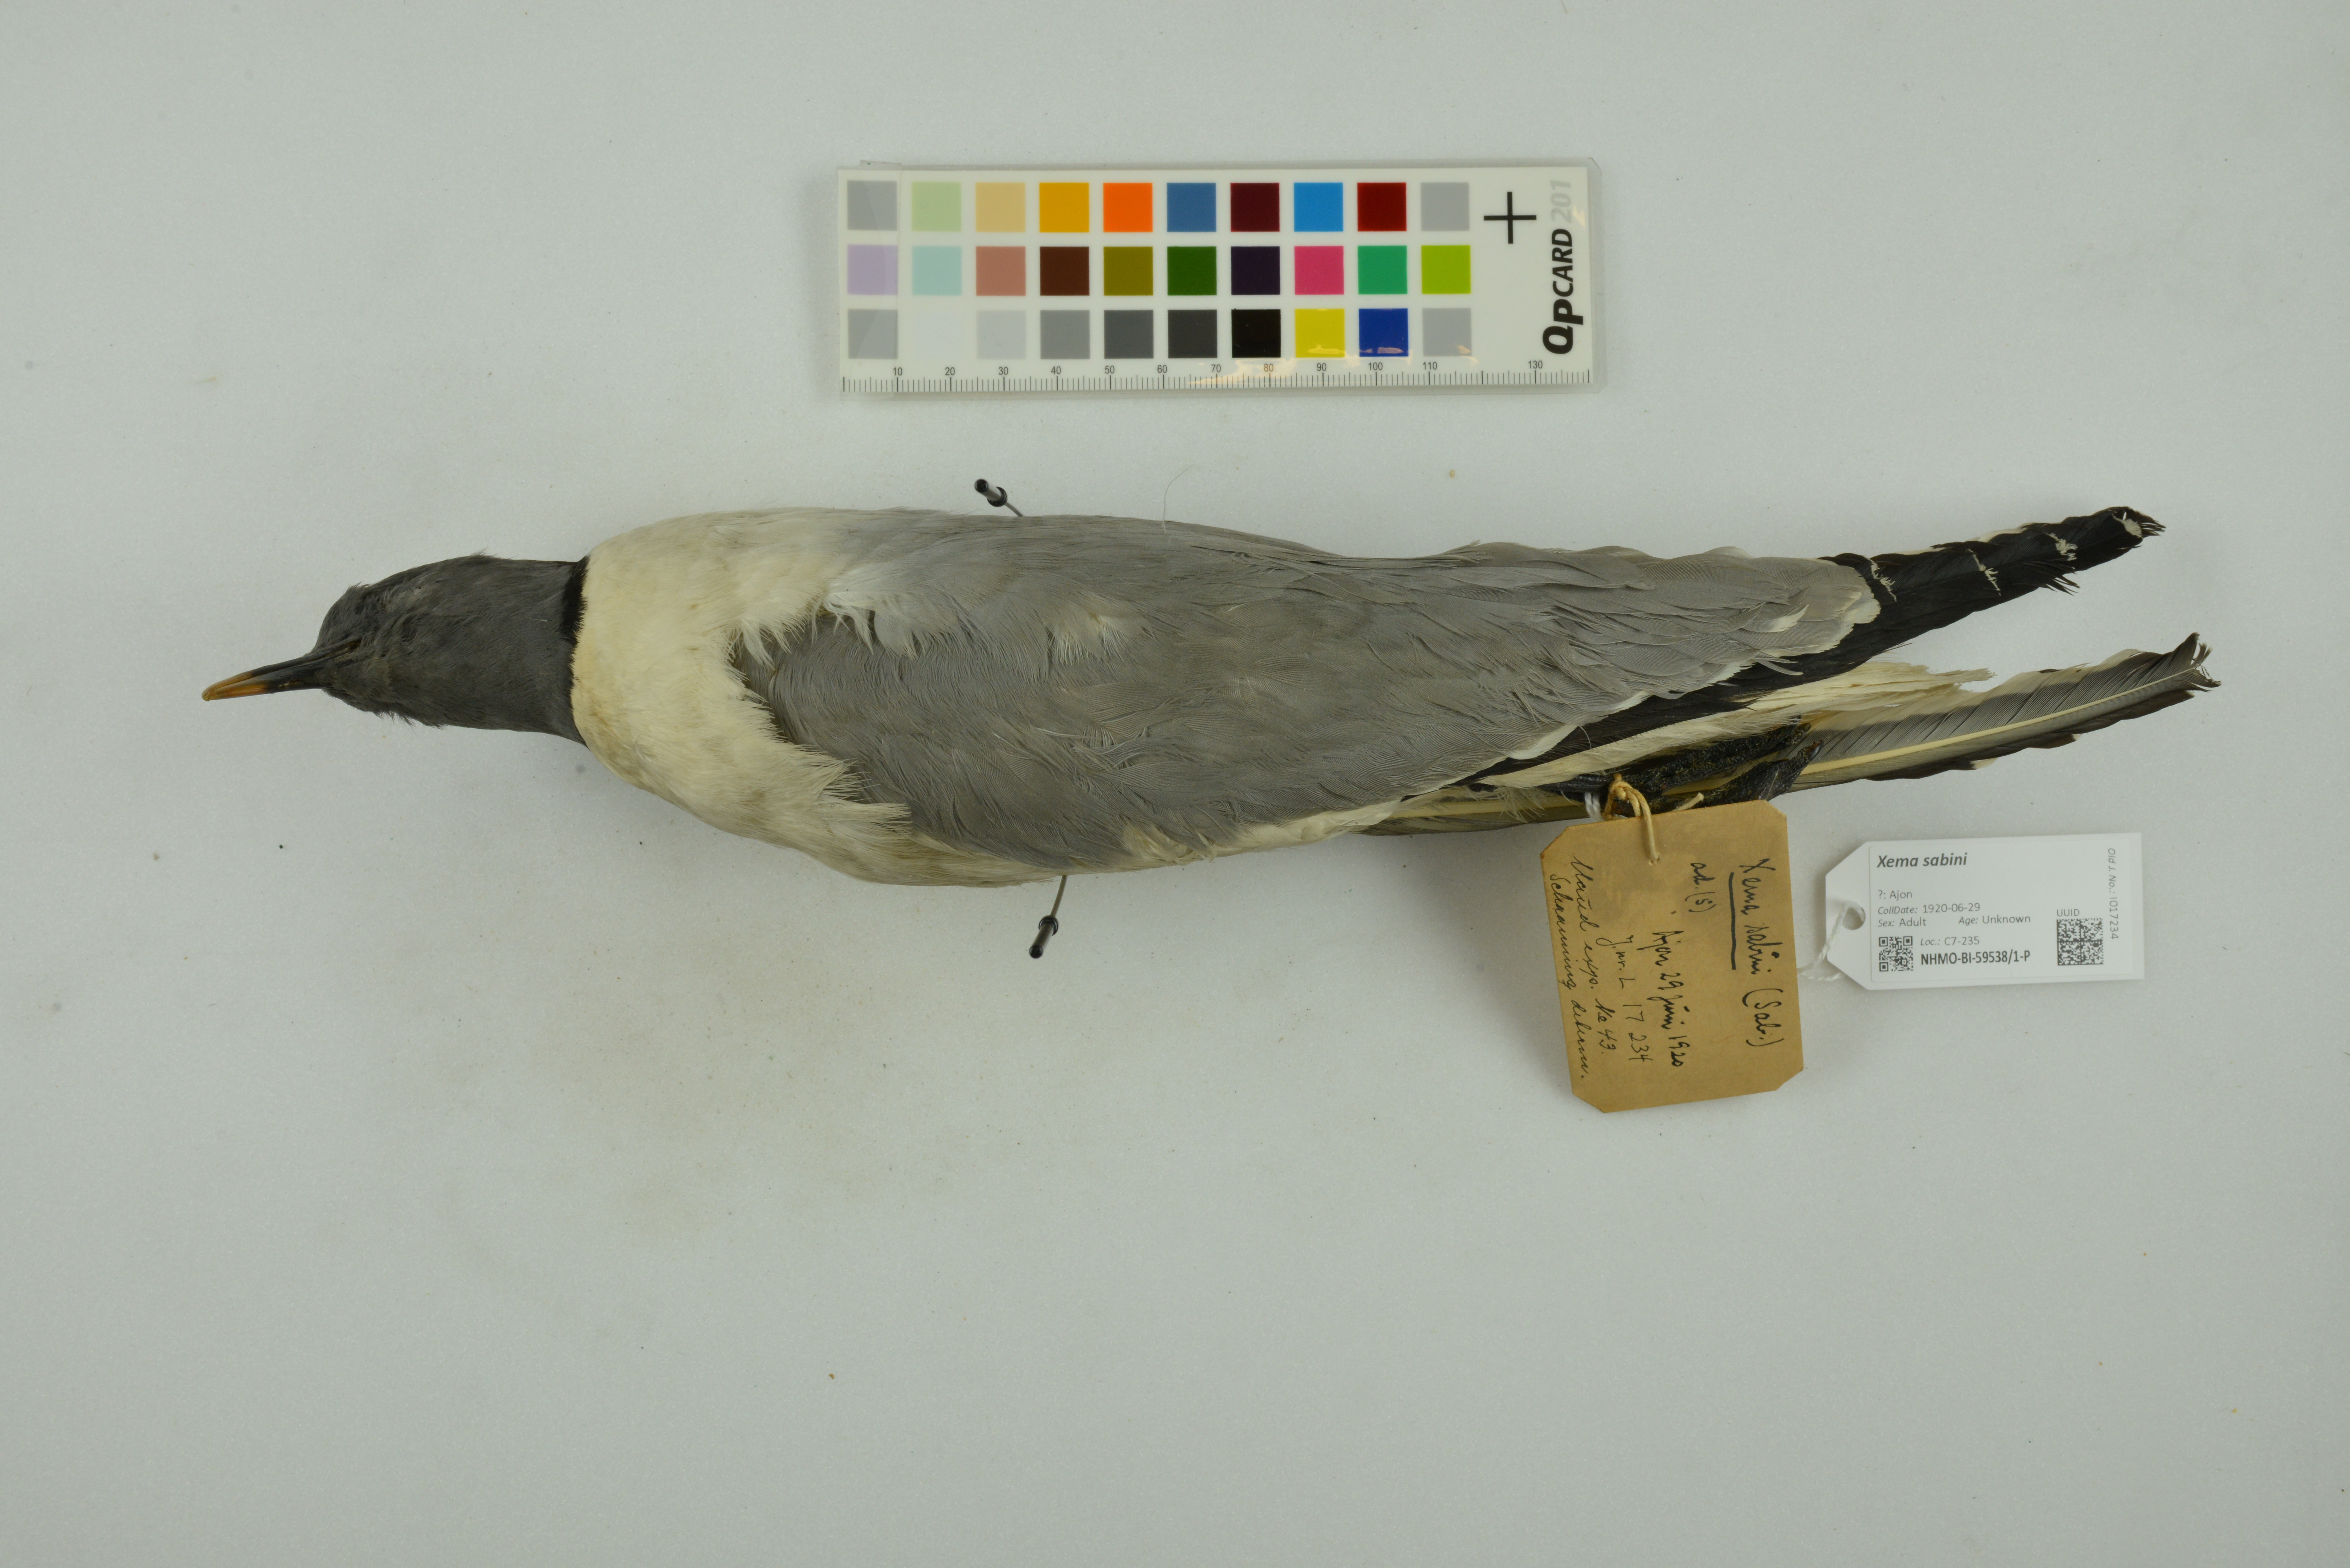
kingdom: Animalia
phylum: Chordata
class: Aves
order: Charadriiformes
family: Laridae
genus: Xema
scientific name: Xema sabini
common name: Sabine's gull
